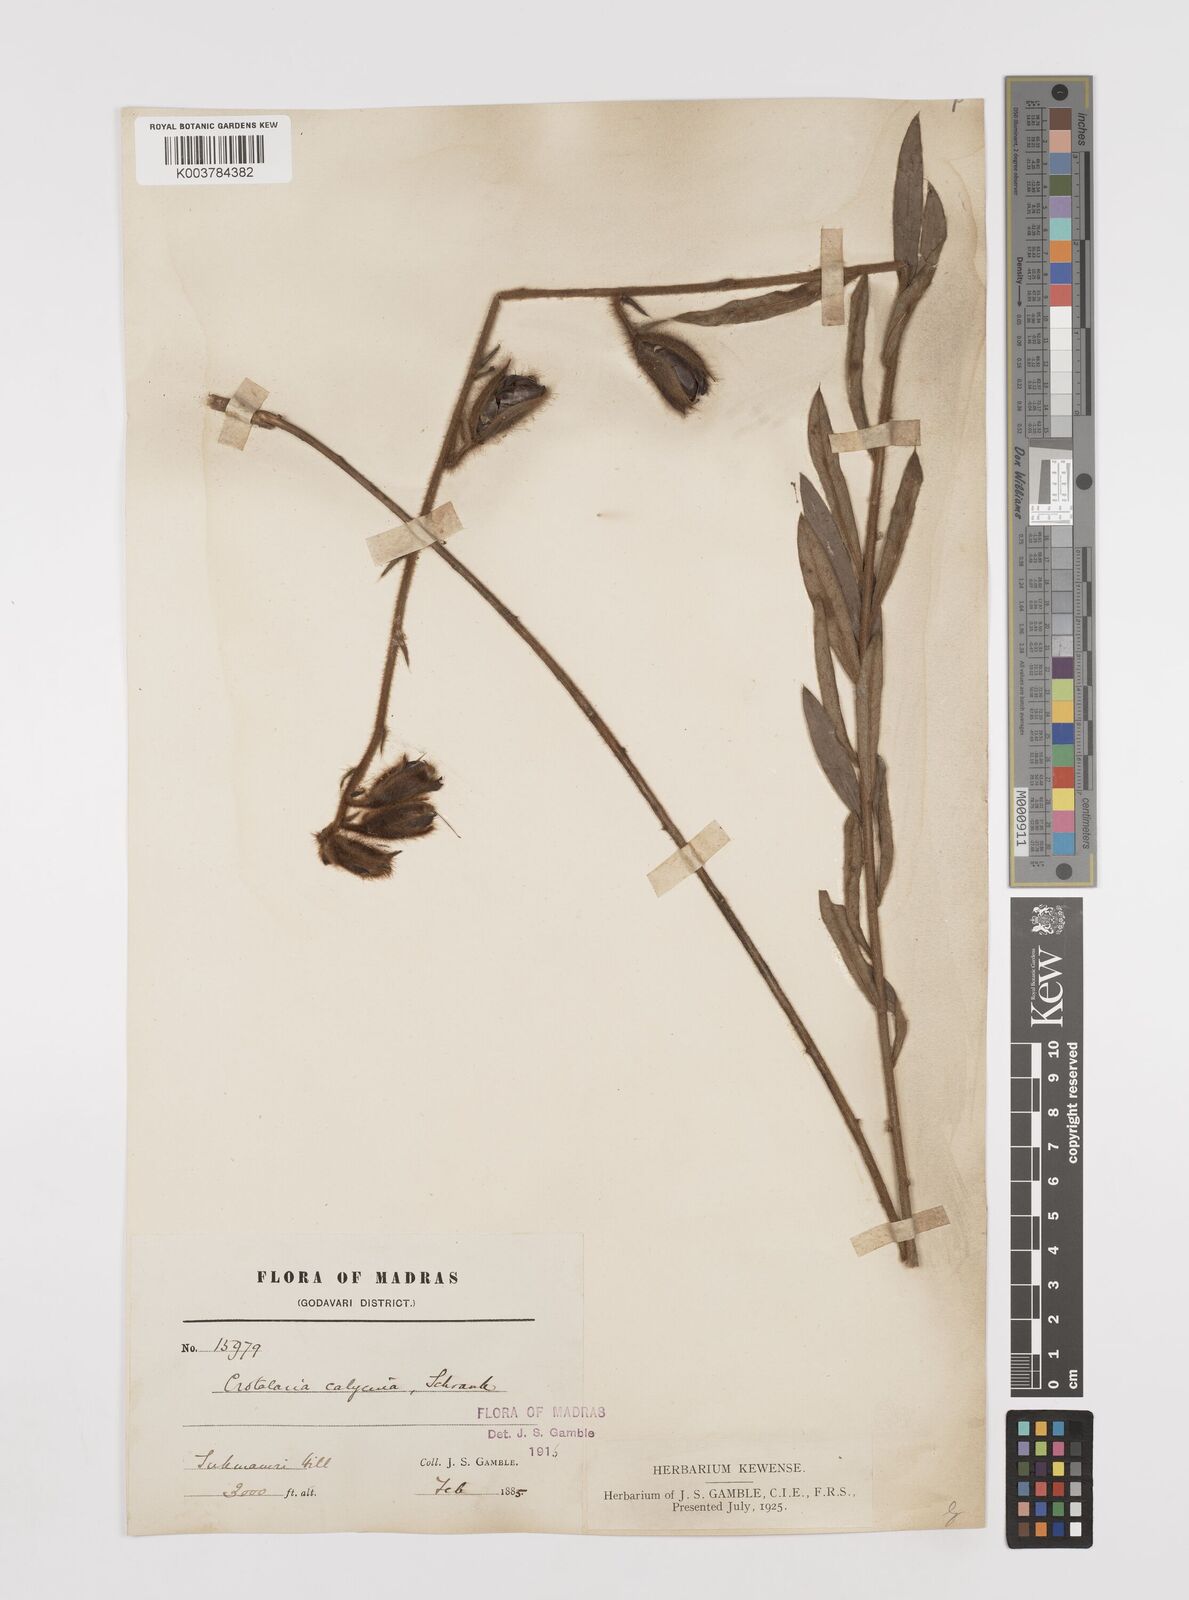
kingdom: Plantae
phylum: Tracheophyta
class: Magnoliopsida
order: Fabales
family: Fabaceae
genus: Crotalaria
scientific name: Crotalaria calycina
